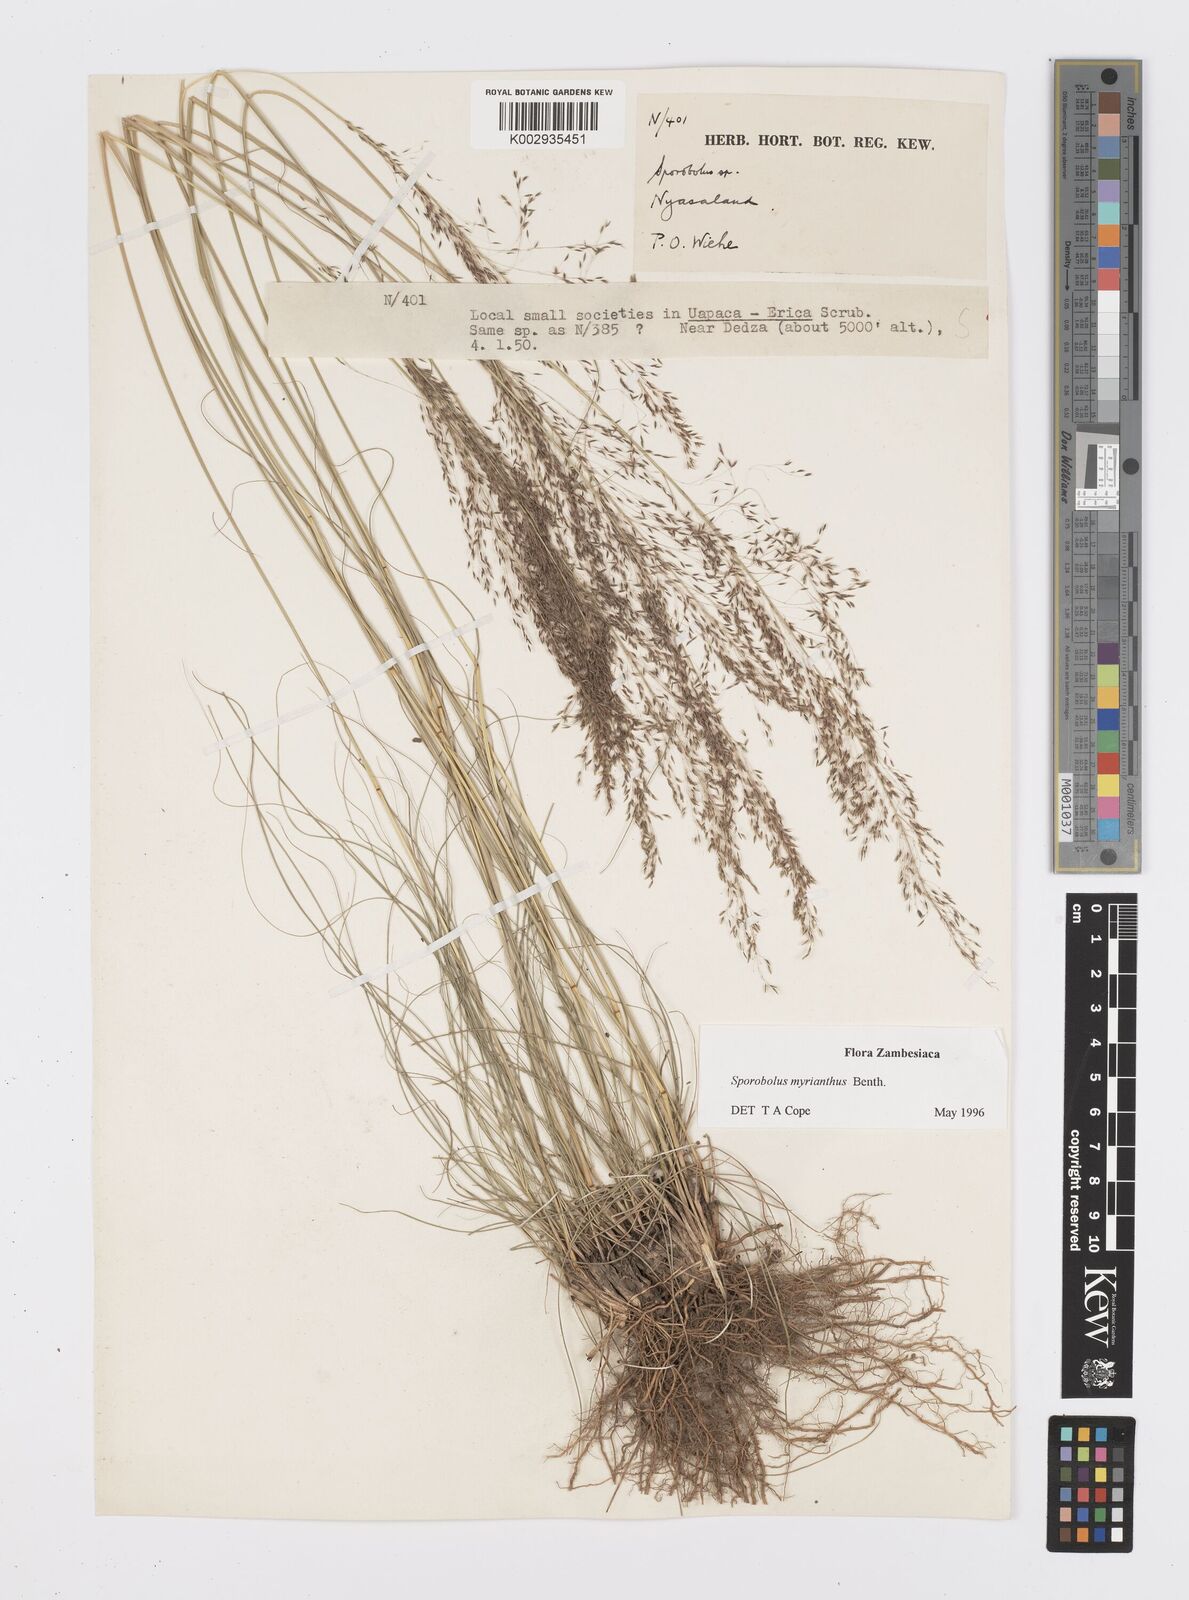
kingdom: Plantae
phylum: Tracheophyta
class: Liliopsida
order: Poales
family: Poaceae
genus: Sporobolus
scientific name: Sporobolus myrianthus
